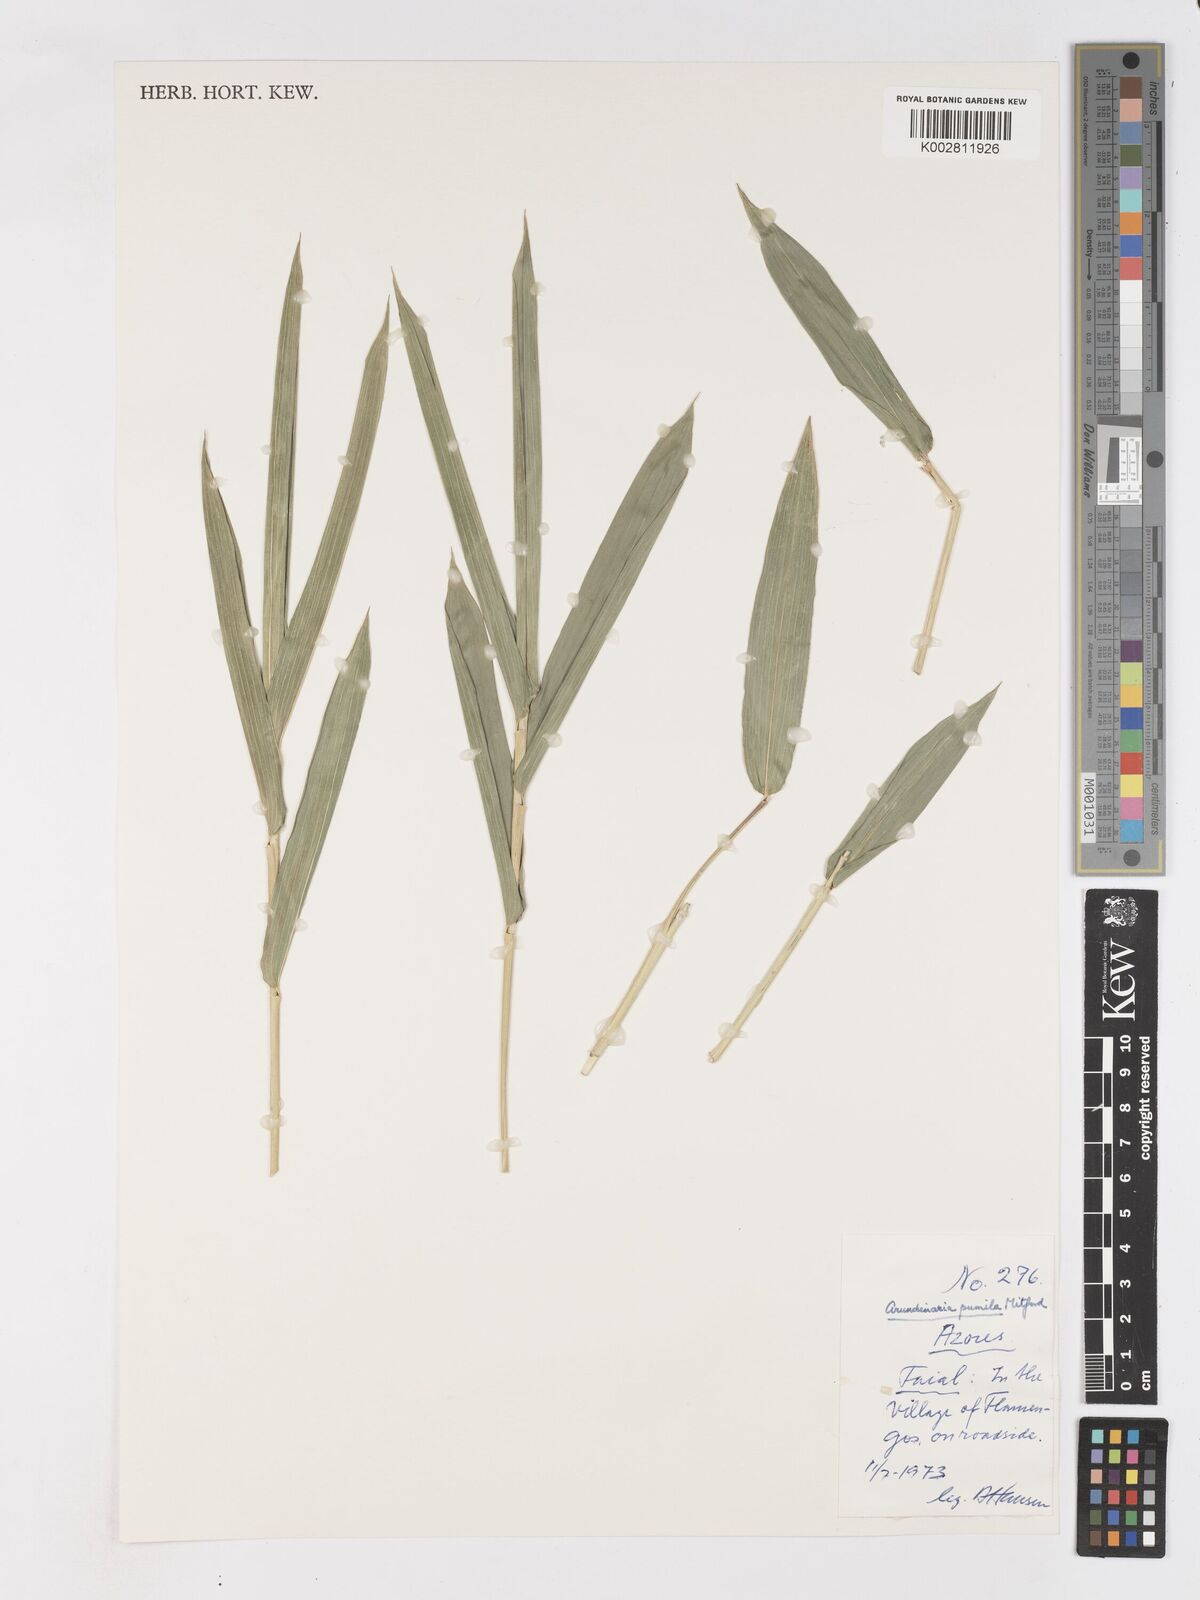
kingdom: Plantae
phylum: Tracheophyta
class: Liliopsida
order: Poales
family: Poaceae
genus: Pleioblastus
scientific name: Pleioblastus argenteostriatus
